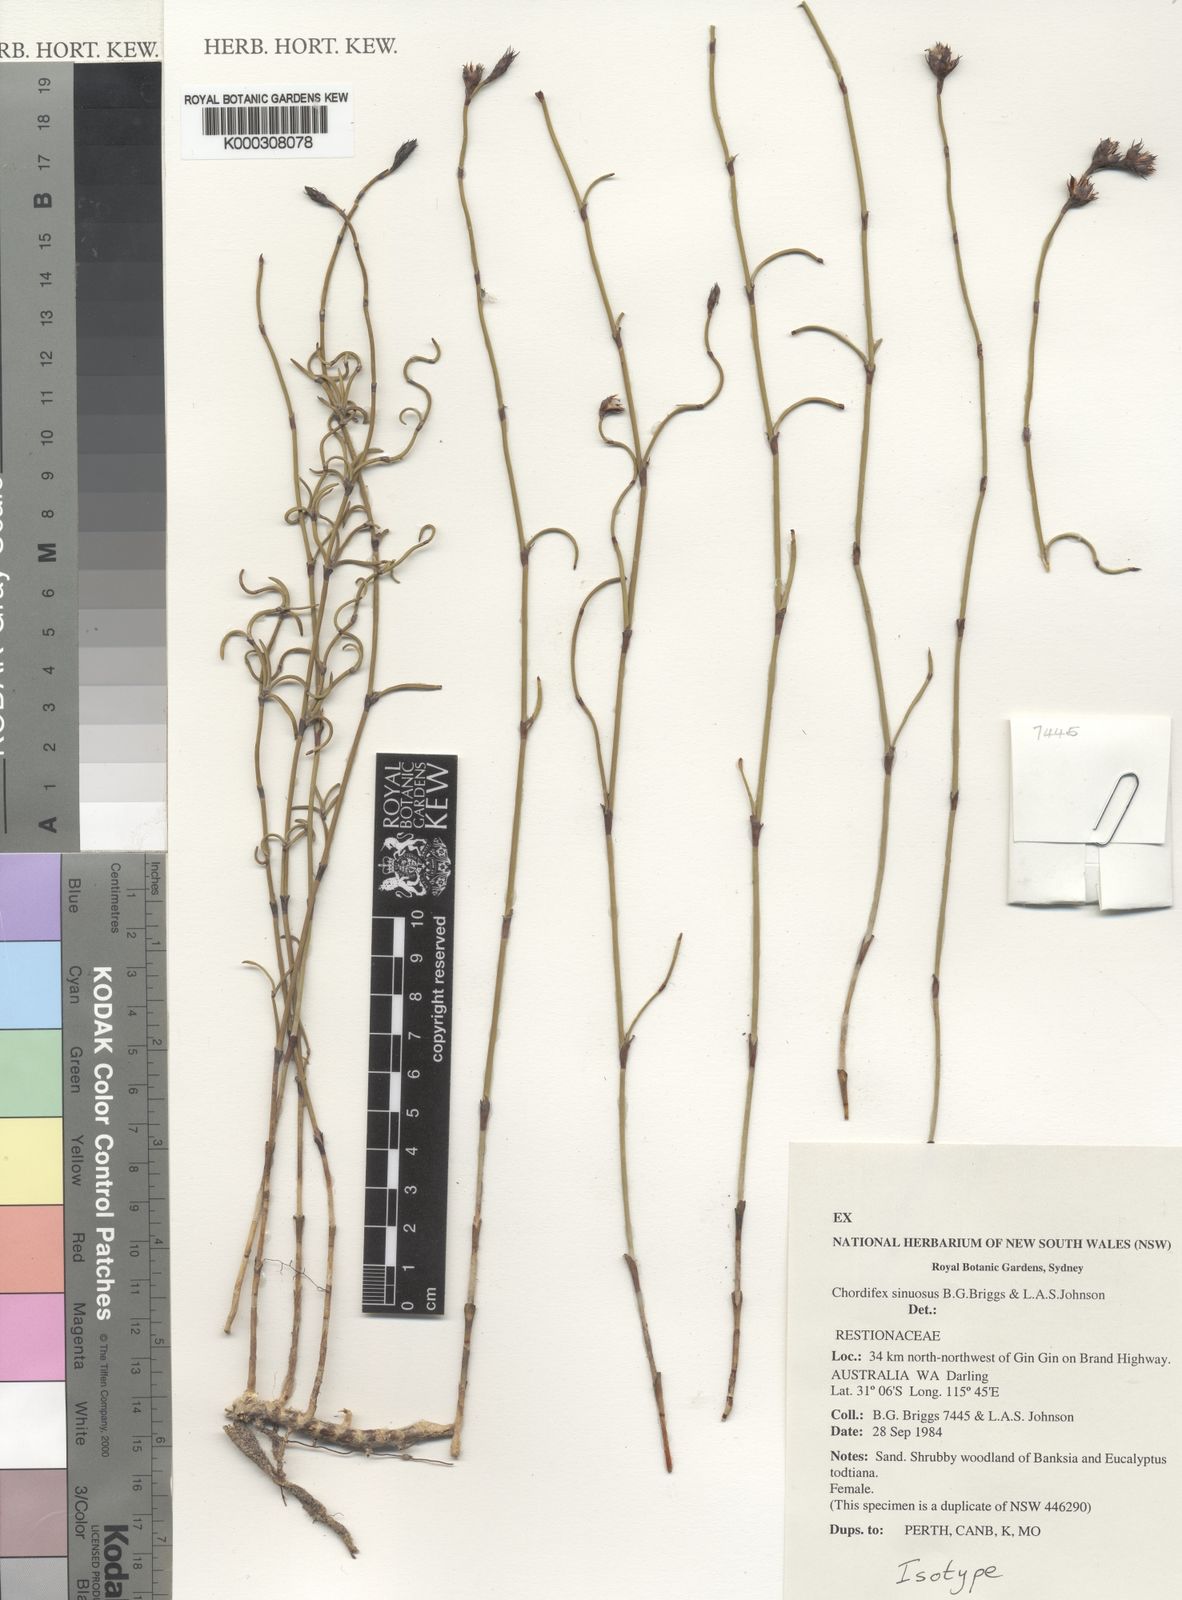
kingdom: Plantae
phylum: Tracheophyta
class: Liliopsida
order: Poales
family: Restionaceae
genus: Chordifex
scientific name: Chordifex sinuosus
